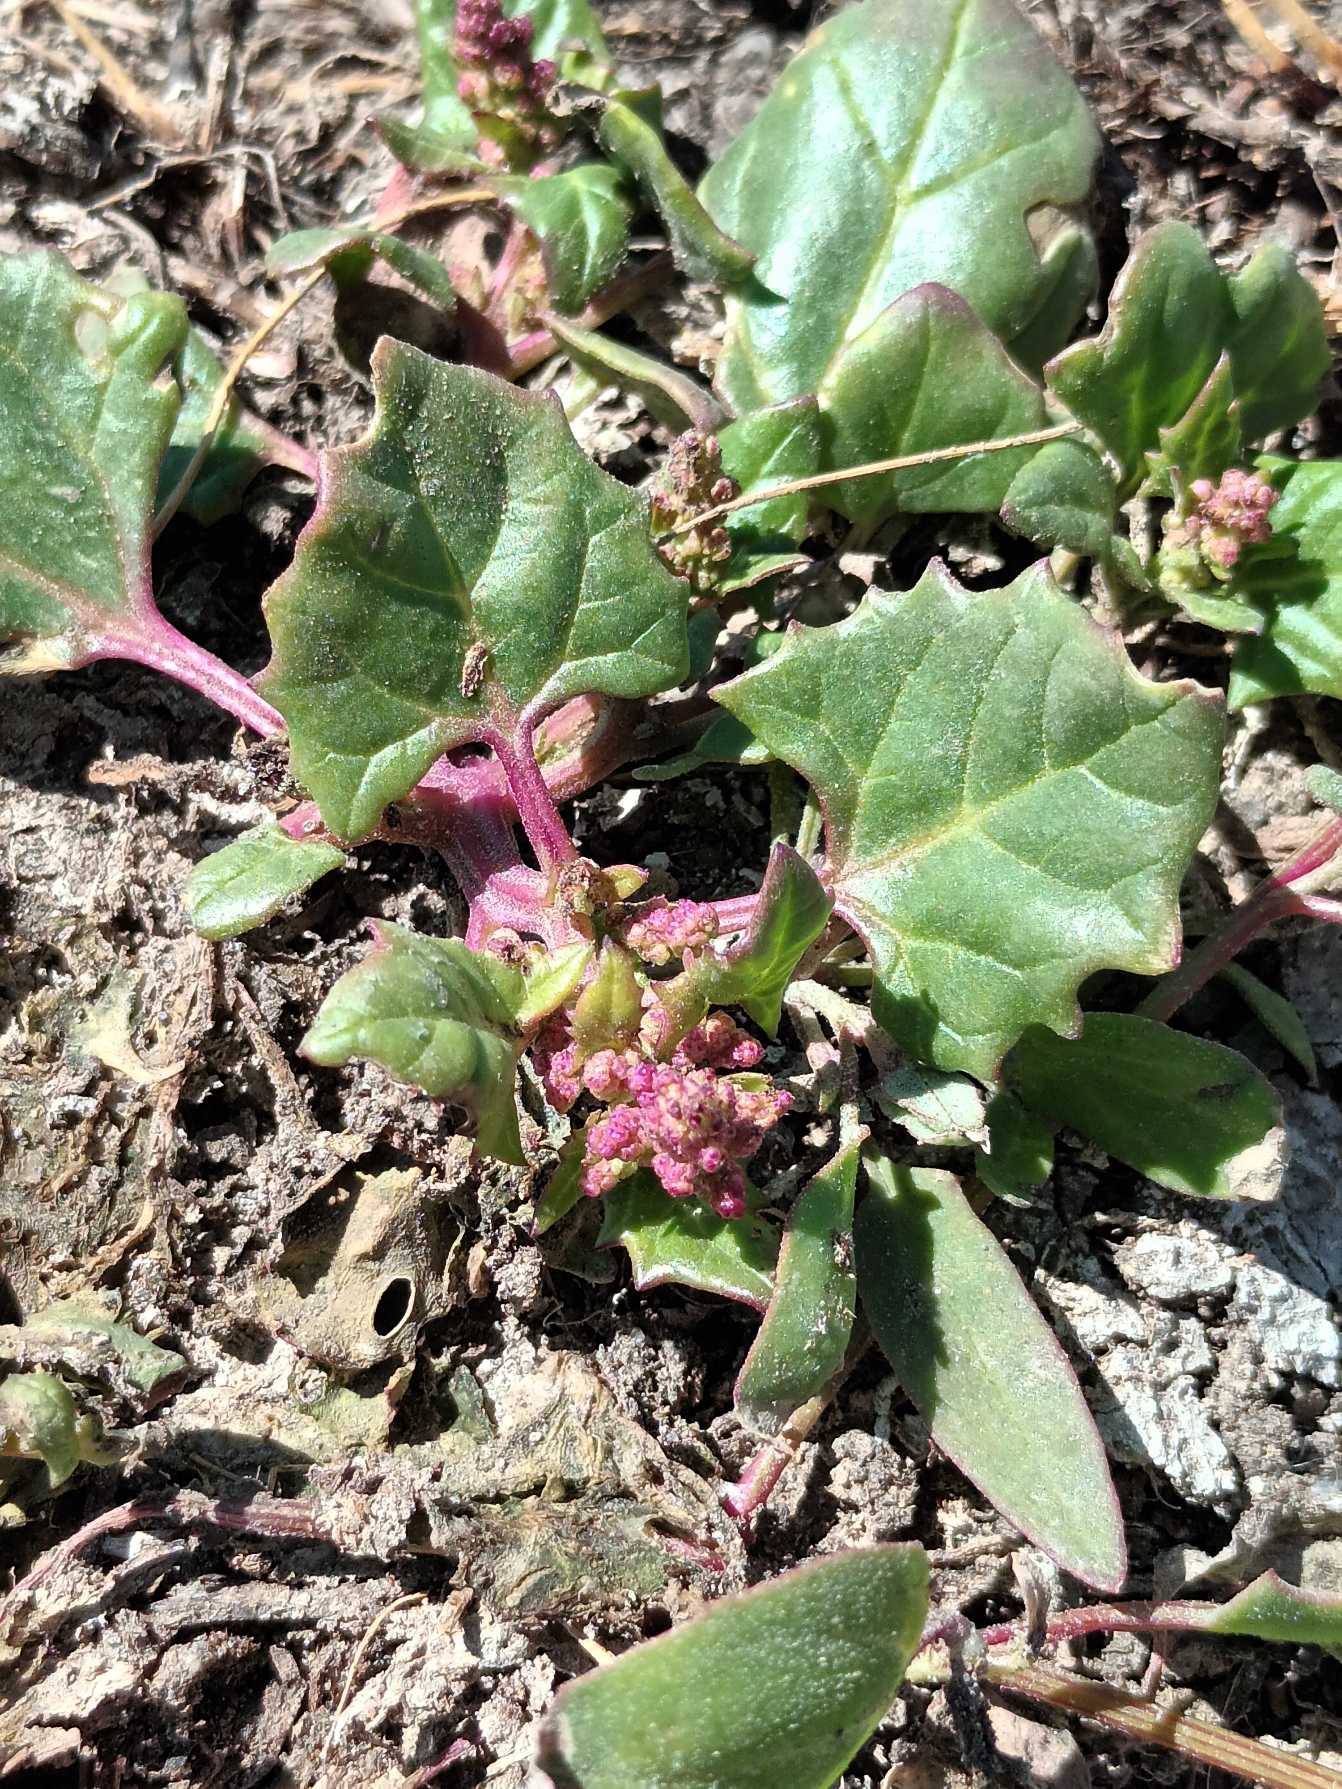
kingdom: Plantae
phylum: Tracheophyta
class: Magnoliopsida
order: Caryophyllales
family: Amaranthaceae
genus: Oxybasis
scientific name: Oxybasis rubra
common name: Rød gåsefod
